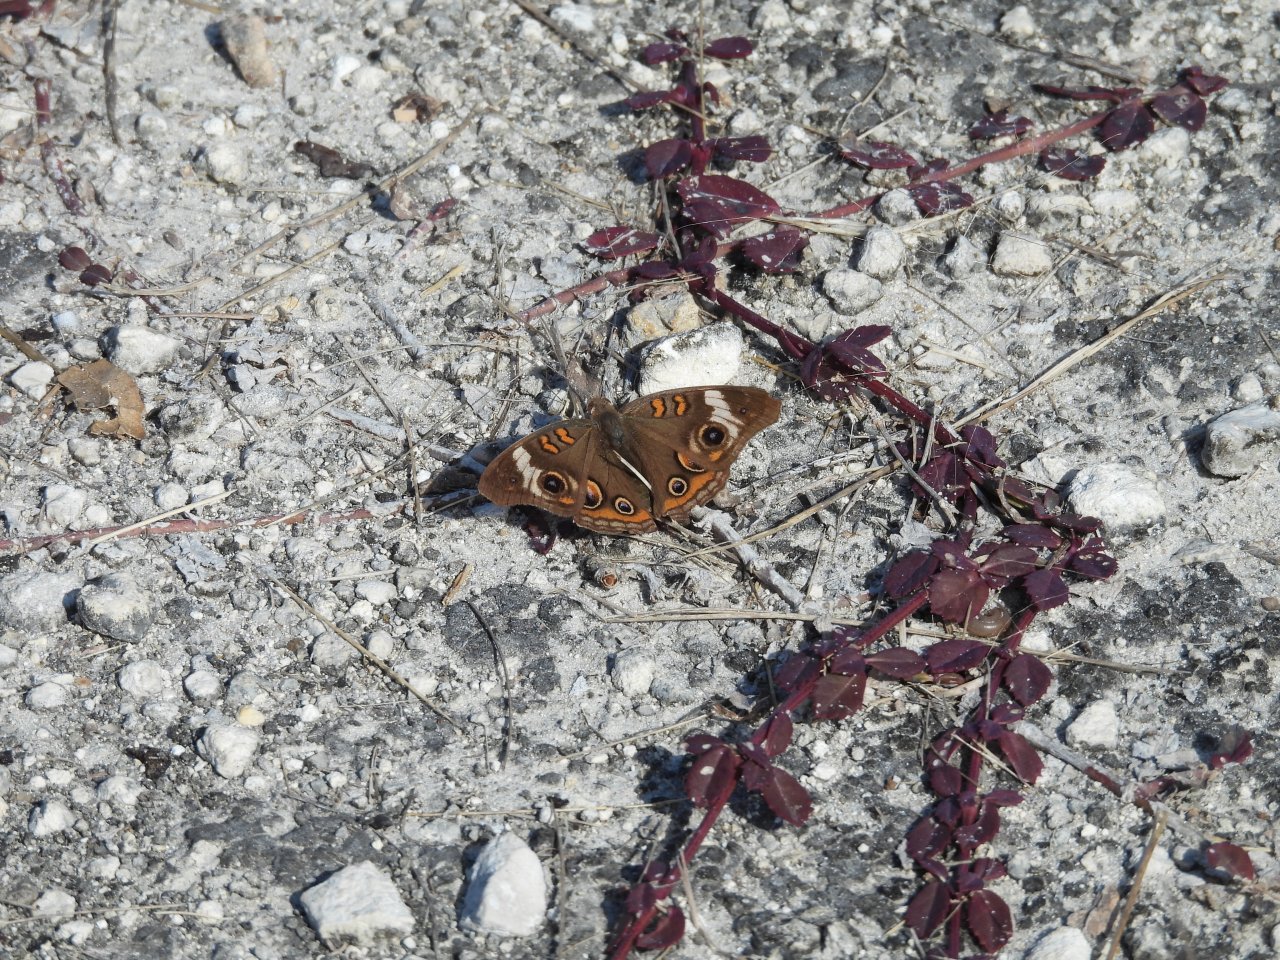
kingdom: Animalia
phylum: Arthropoda
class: Insecta
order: Lepidoptera
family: Nymphalidae
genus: Junonia
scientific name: Junonia coenia
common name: Common Buckeye
